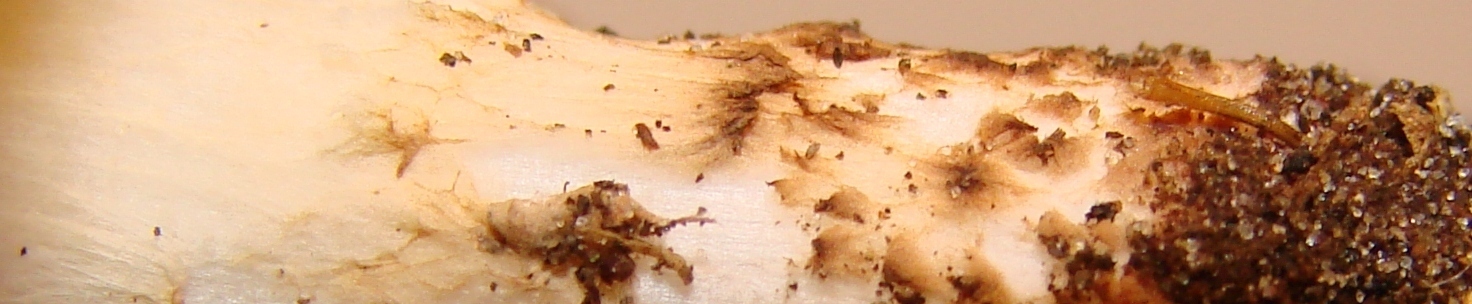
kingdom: Fungi
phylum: Basidiomycota
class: Agaricomycetes
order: Agaricales
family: Agaricaceae
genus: Echinoderma
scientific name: Echinoderma carinii
